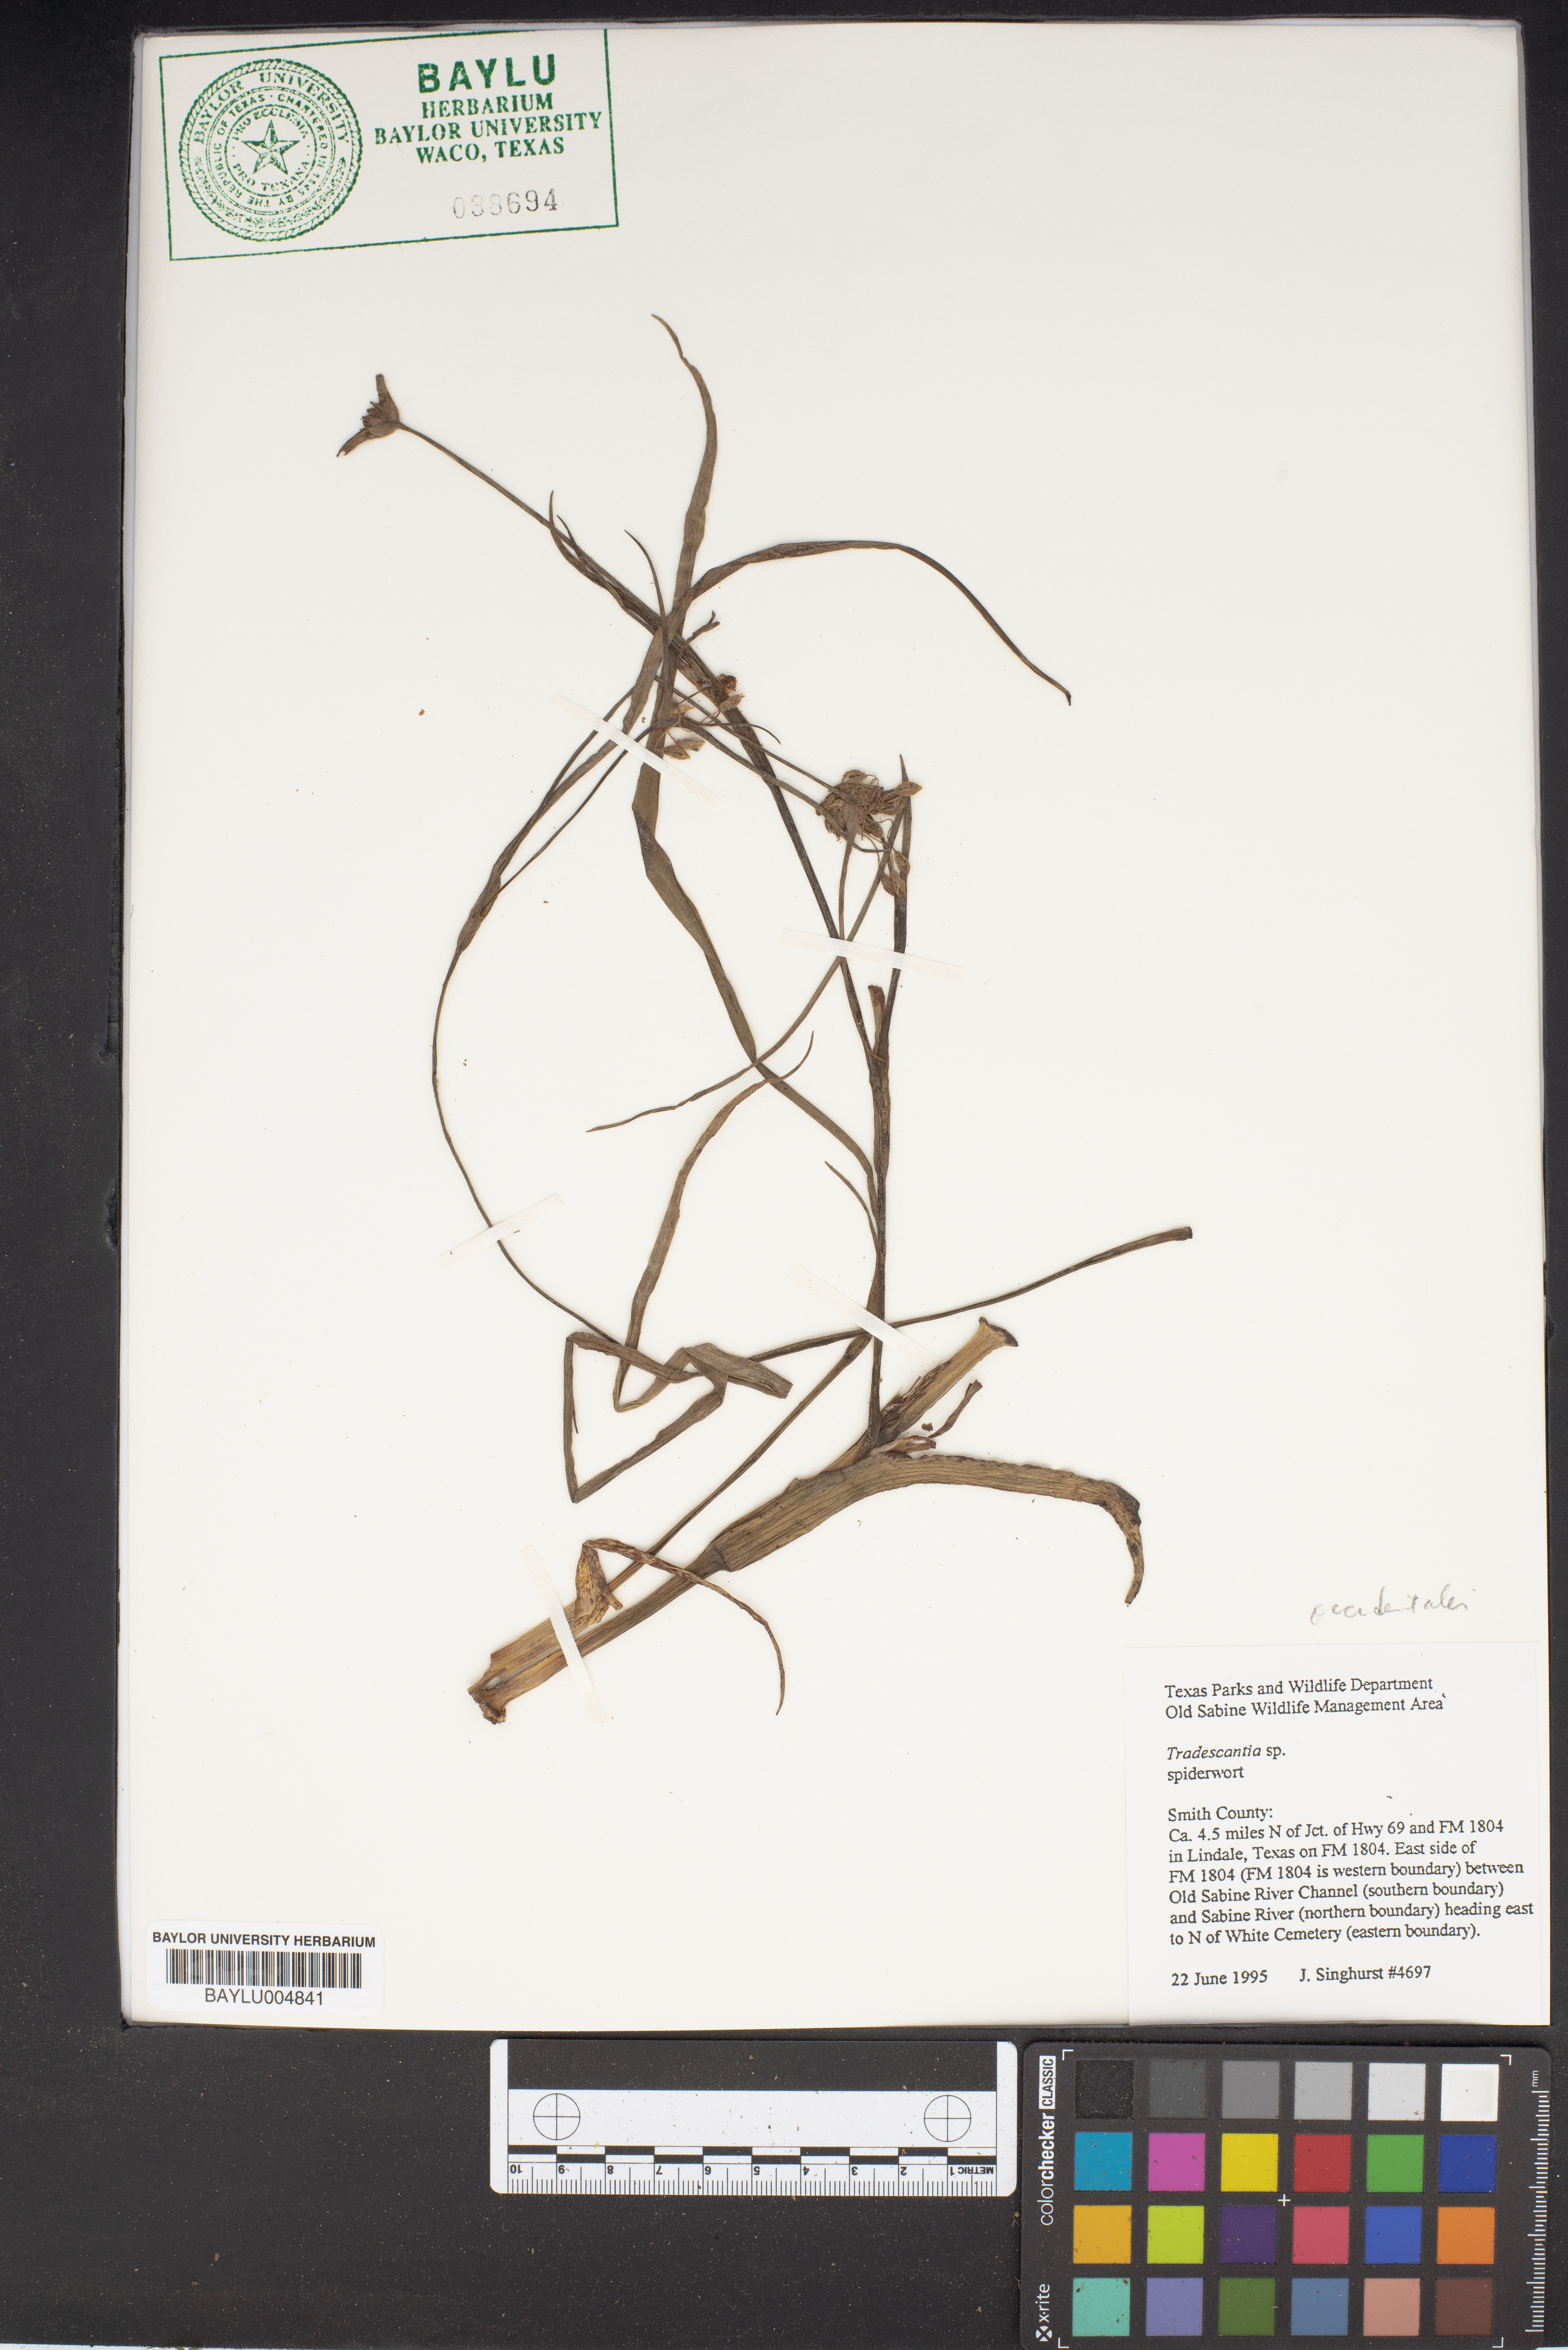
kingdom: Plantae
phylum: Tracheophyta
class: Liliopsida
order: Commelinales
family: Commelinaceae
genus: Tradescantia
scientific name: Tradescantia
